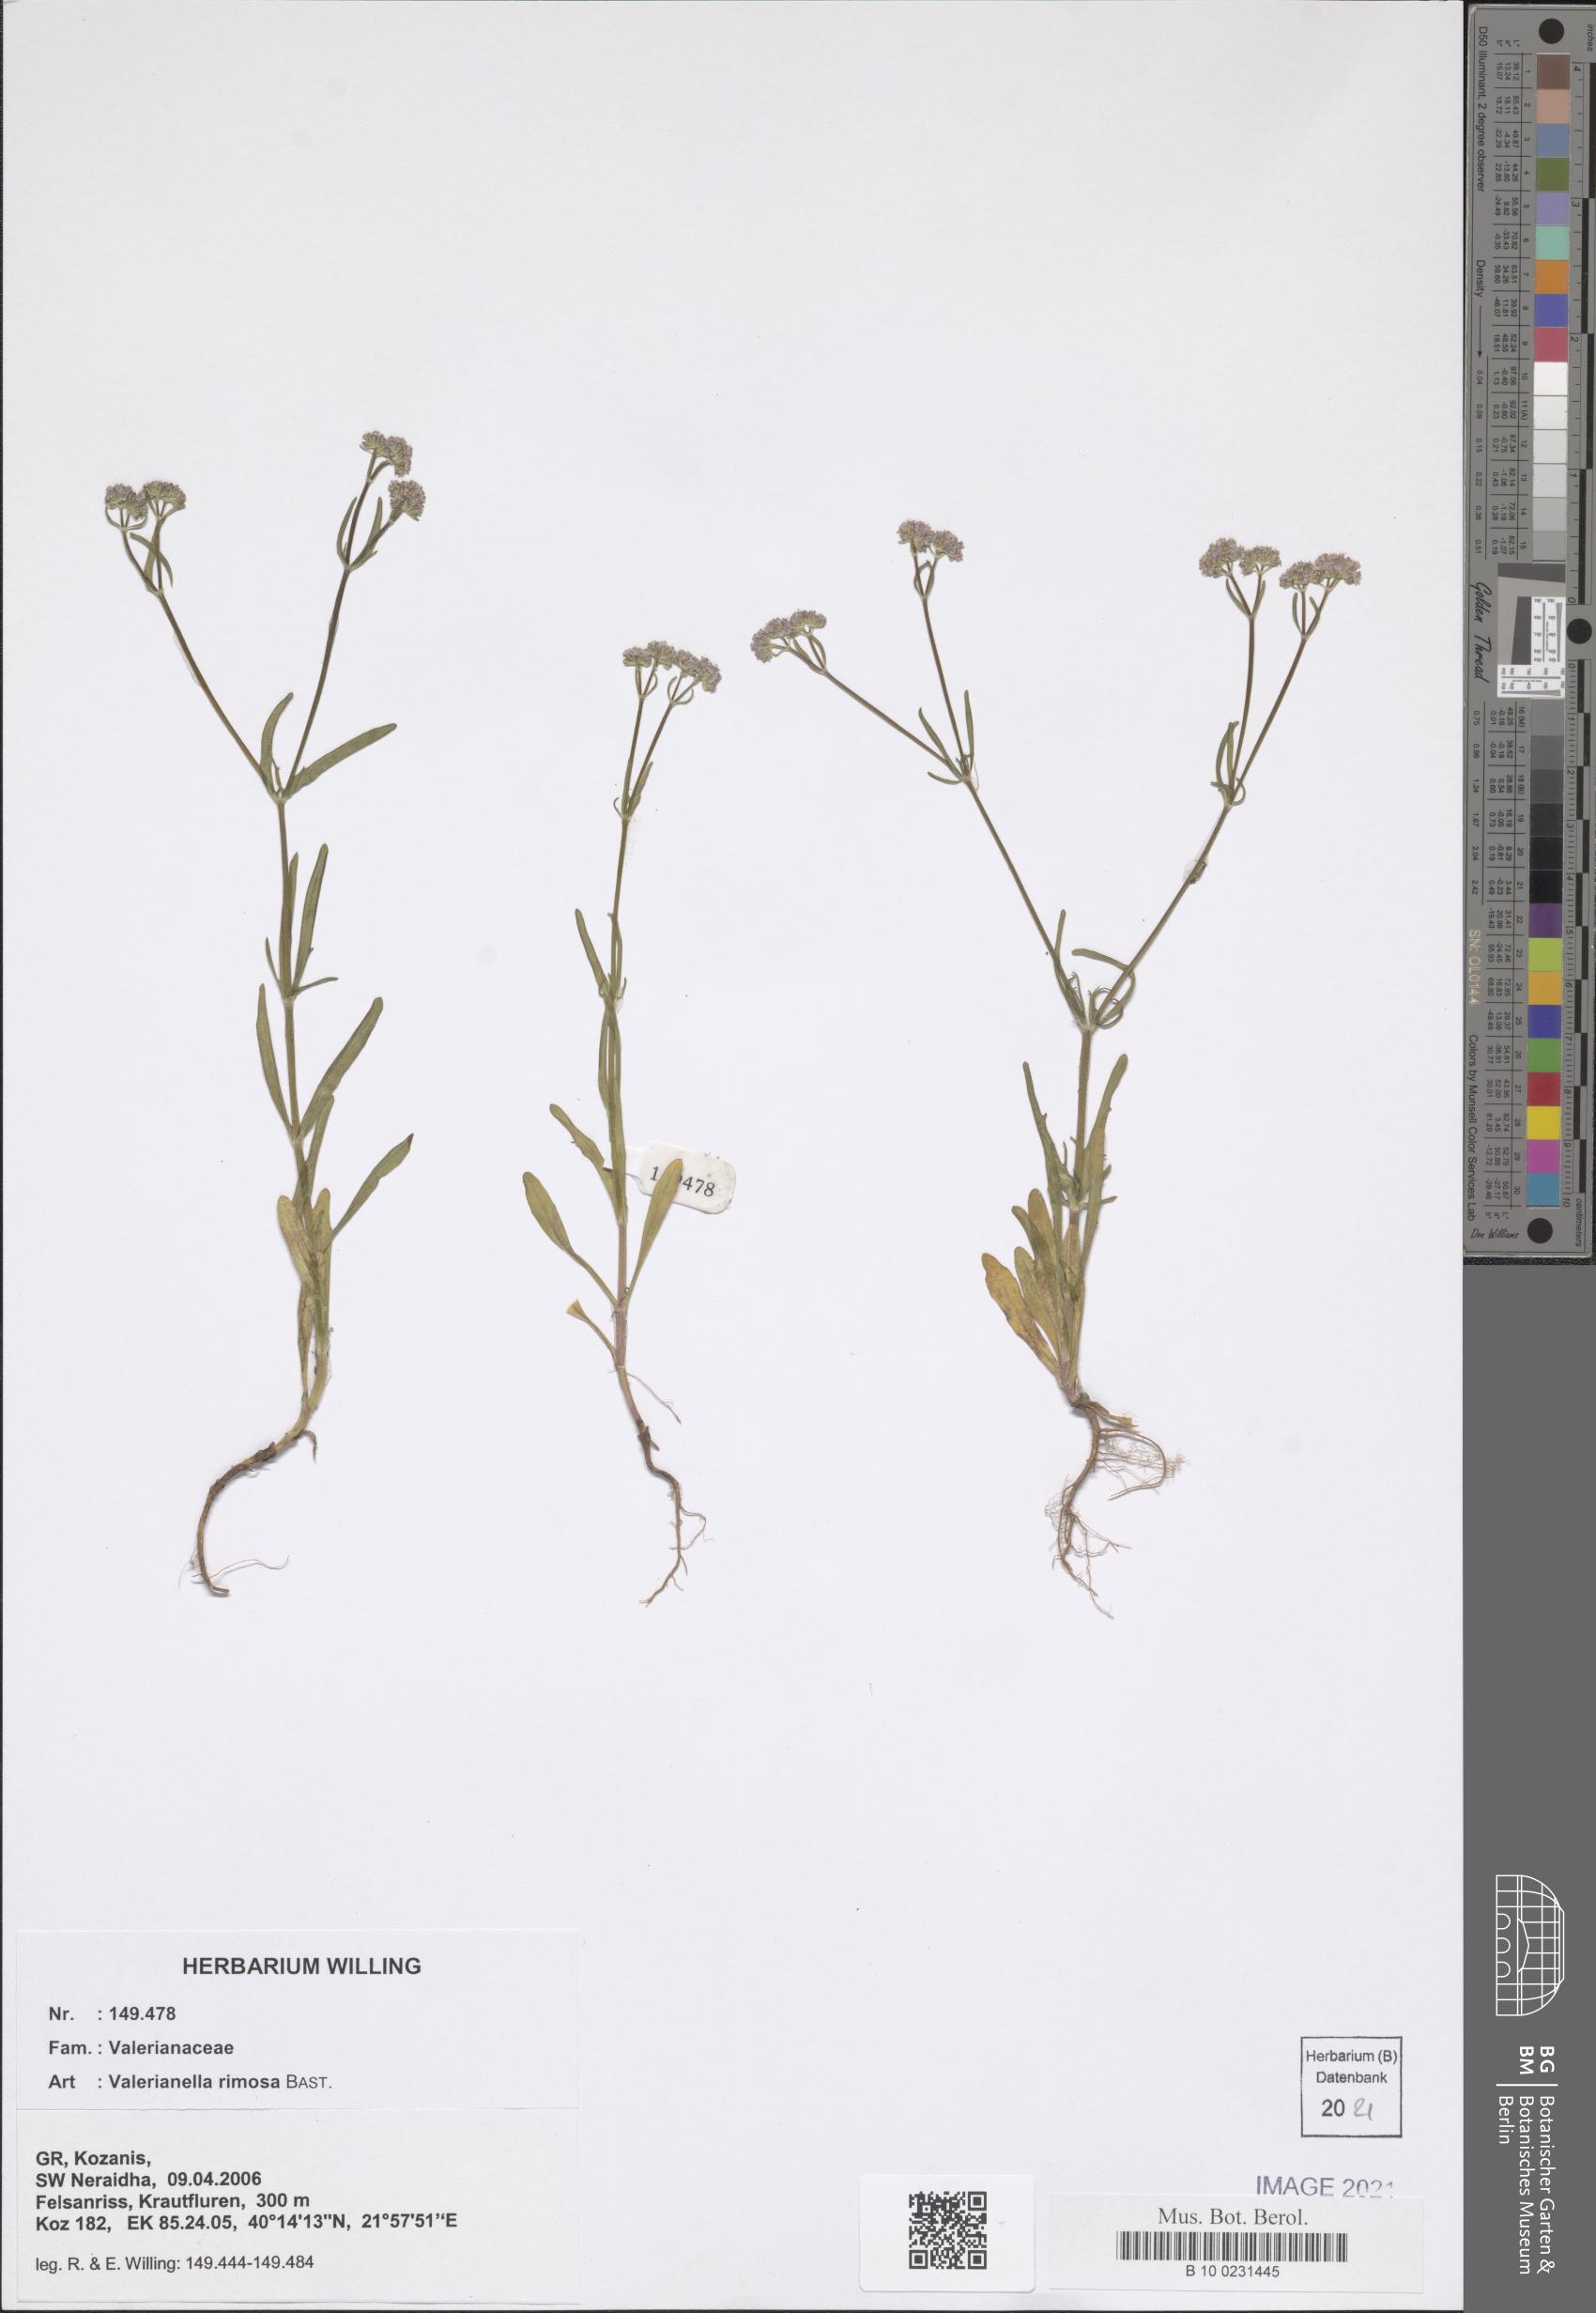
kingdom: Plantae
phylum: Tracheophyta
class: Magnoliopsida
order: Dipsacales
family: Caprifoliaceae
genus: Valerianella
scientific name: Valerianella rimosa
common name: Broad-fruited cornsalad
